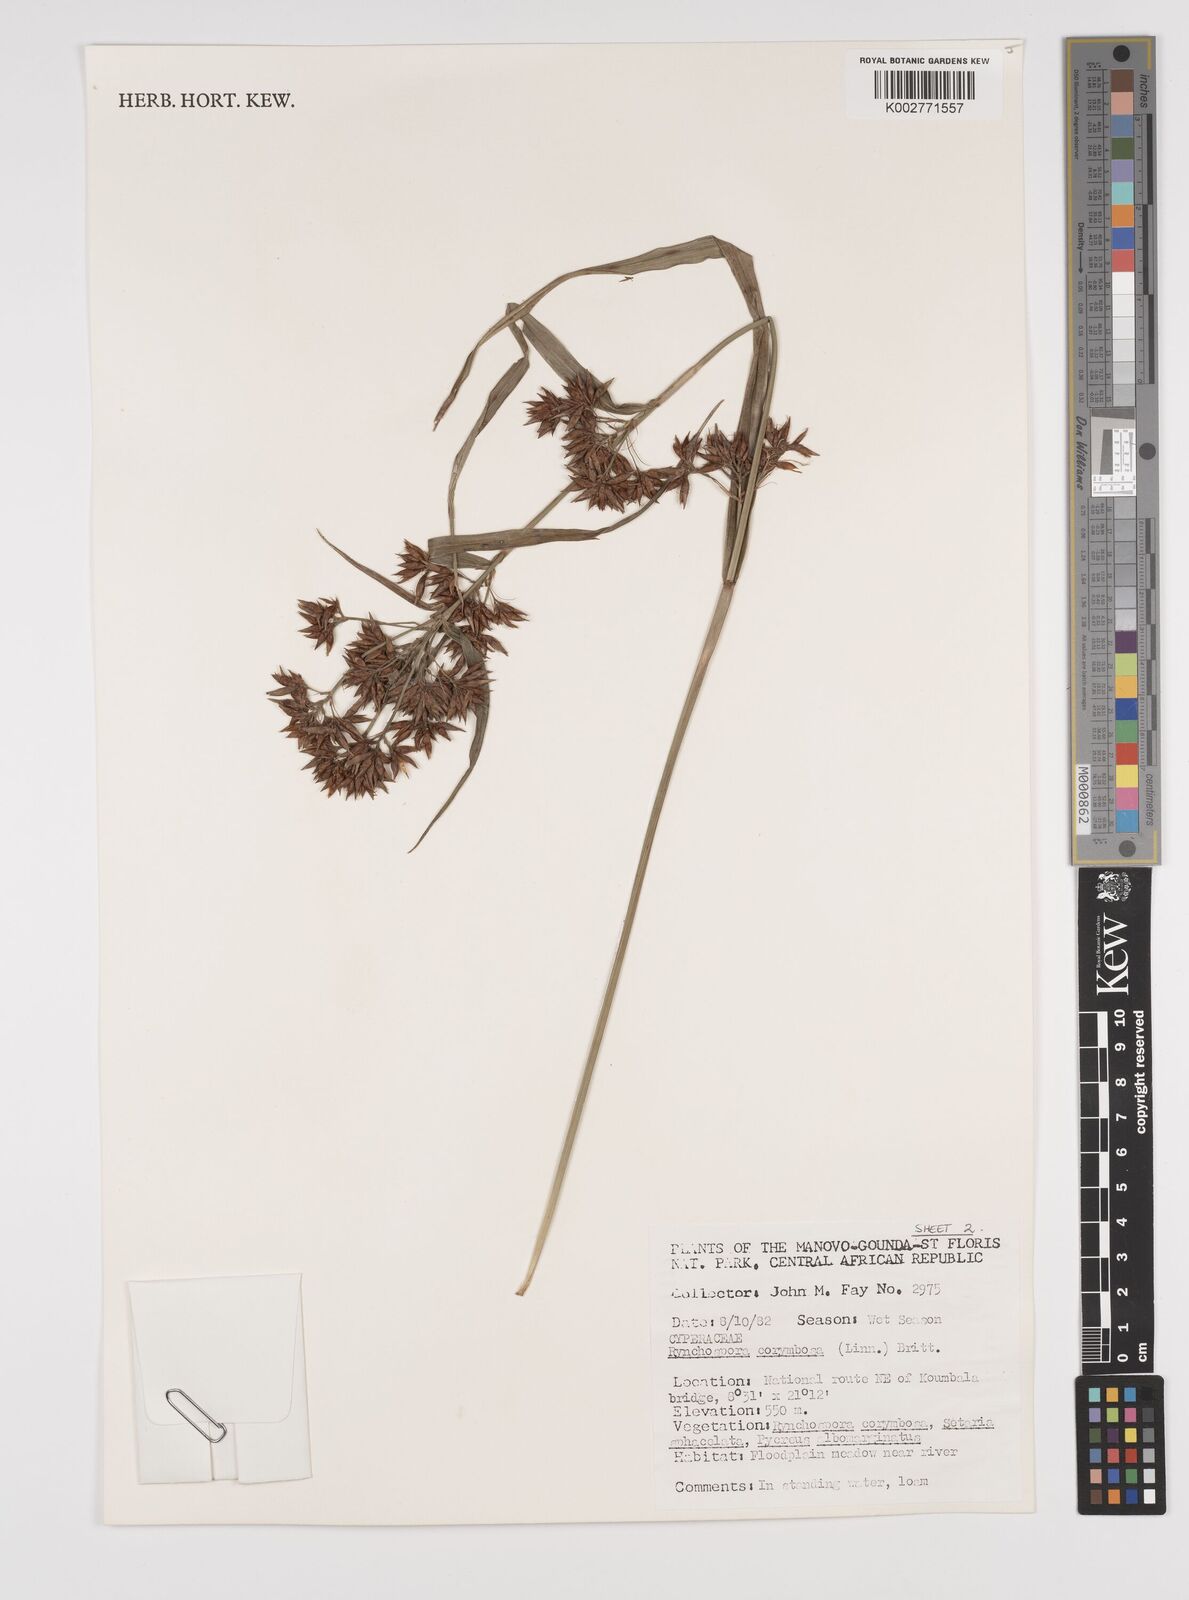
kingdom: Plantae
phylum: Tracheophyta
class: Liliopsida
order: Poales
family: Cyperaceae
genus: Rhynchospora
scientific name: Rhynchospora corymbosa
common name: Golden beak sedge
